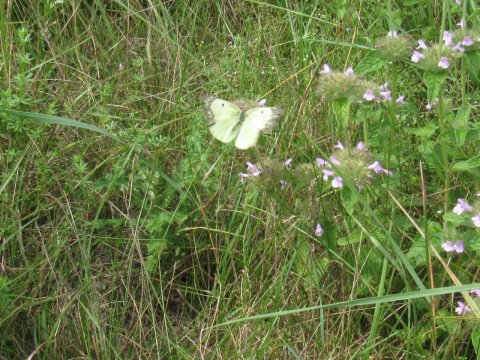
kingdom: Animalia
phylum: Arthropoda
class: Insecta
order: Lepidoptera
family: Pieridae
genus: Colias
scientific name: Colias philodice
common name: Clouded Sulphur
